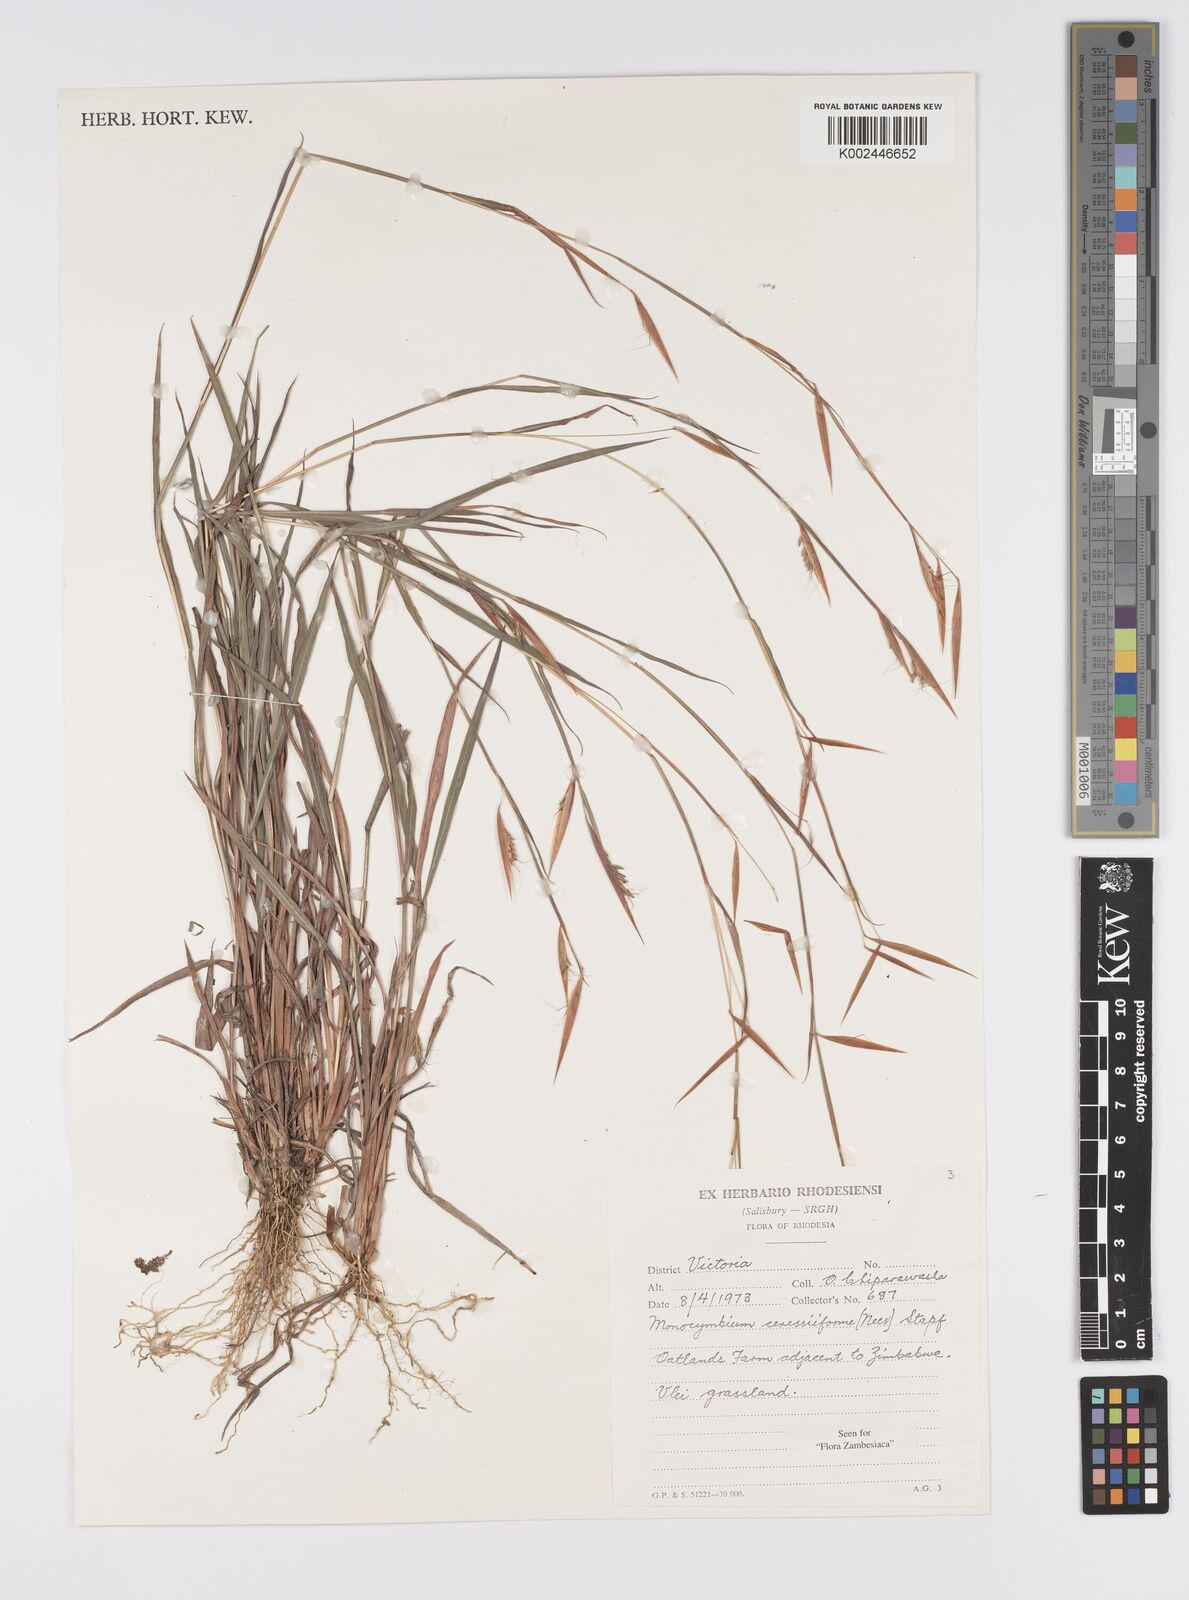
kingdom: Plantae
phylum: Tracheophyta
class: Liliopsida
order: Poales
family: Poaceae
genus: Monocymbium
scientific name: Monocymbium ceresiiforme
